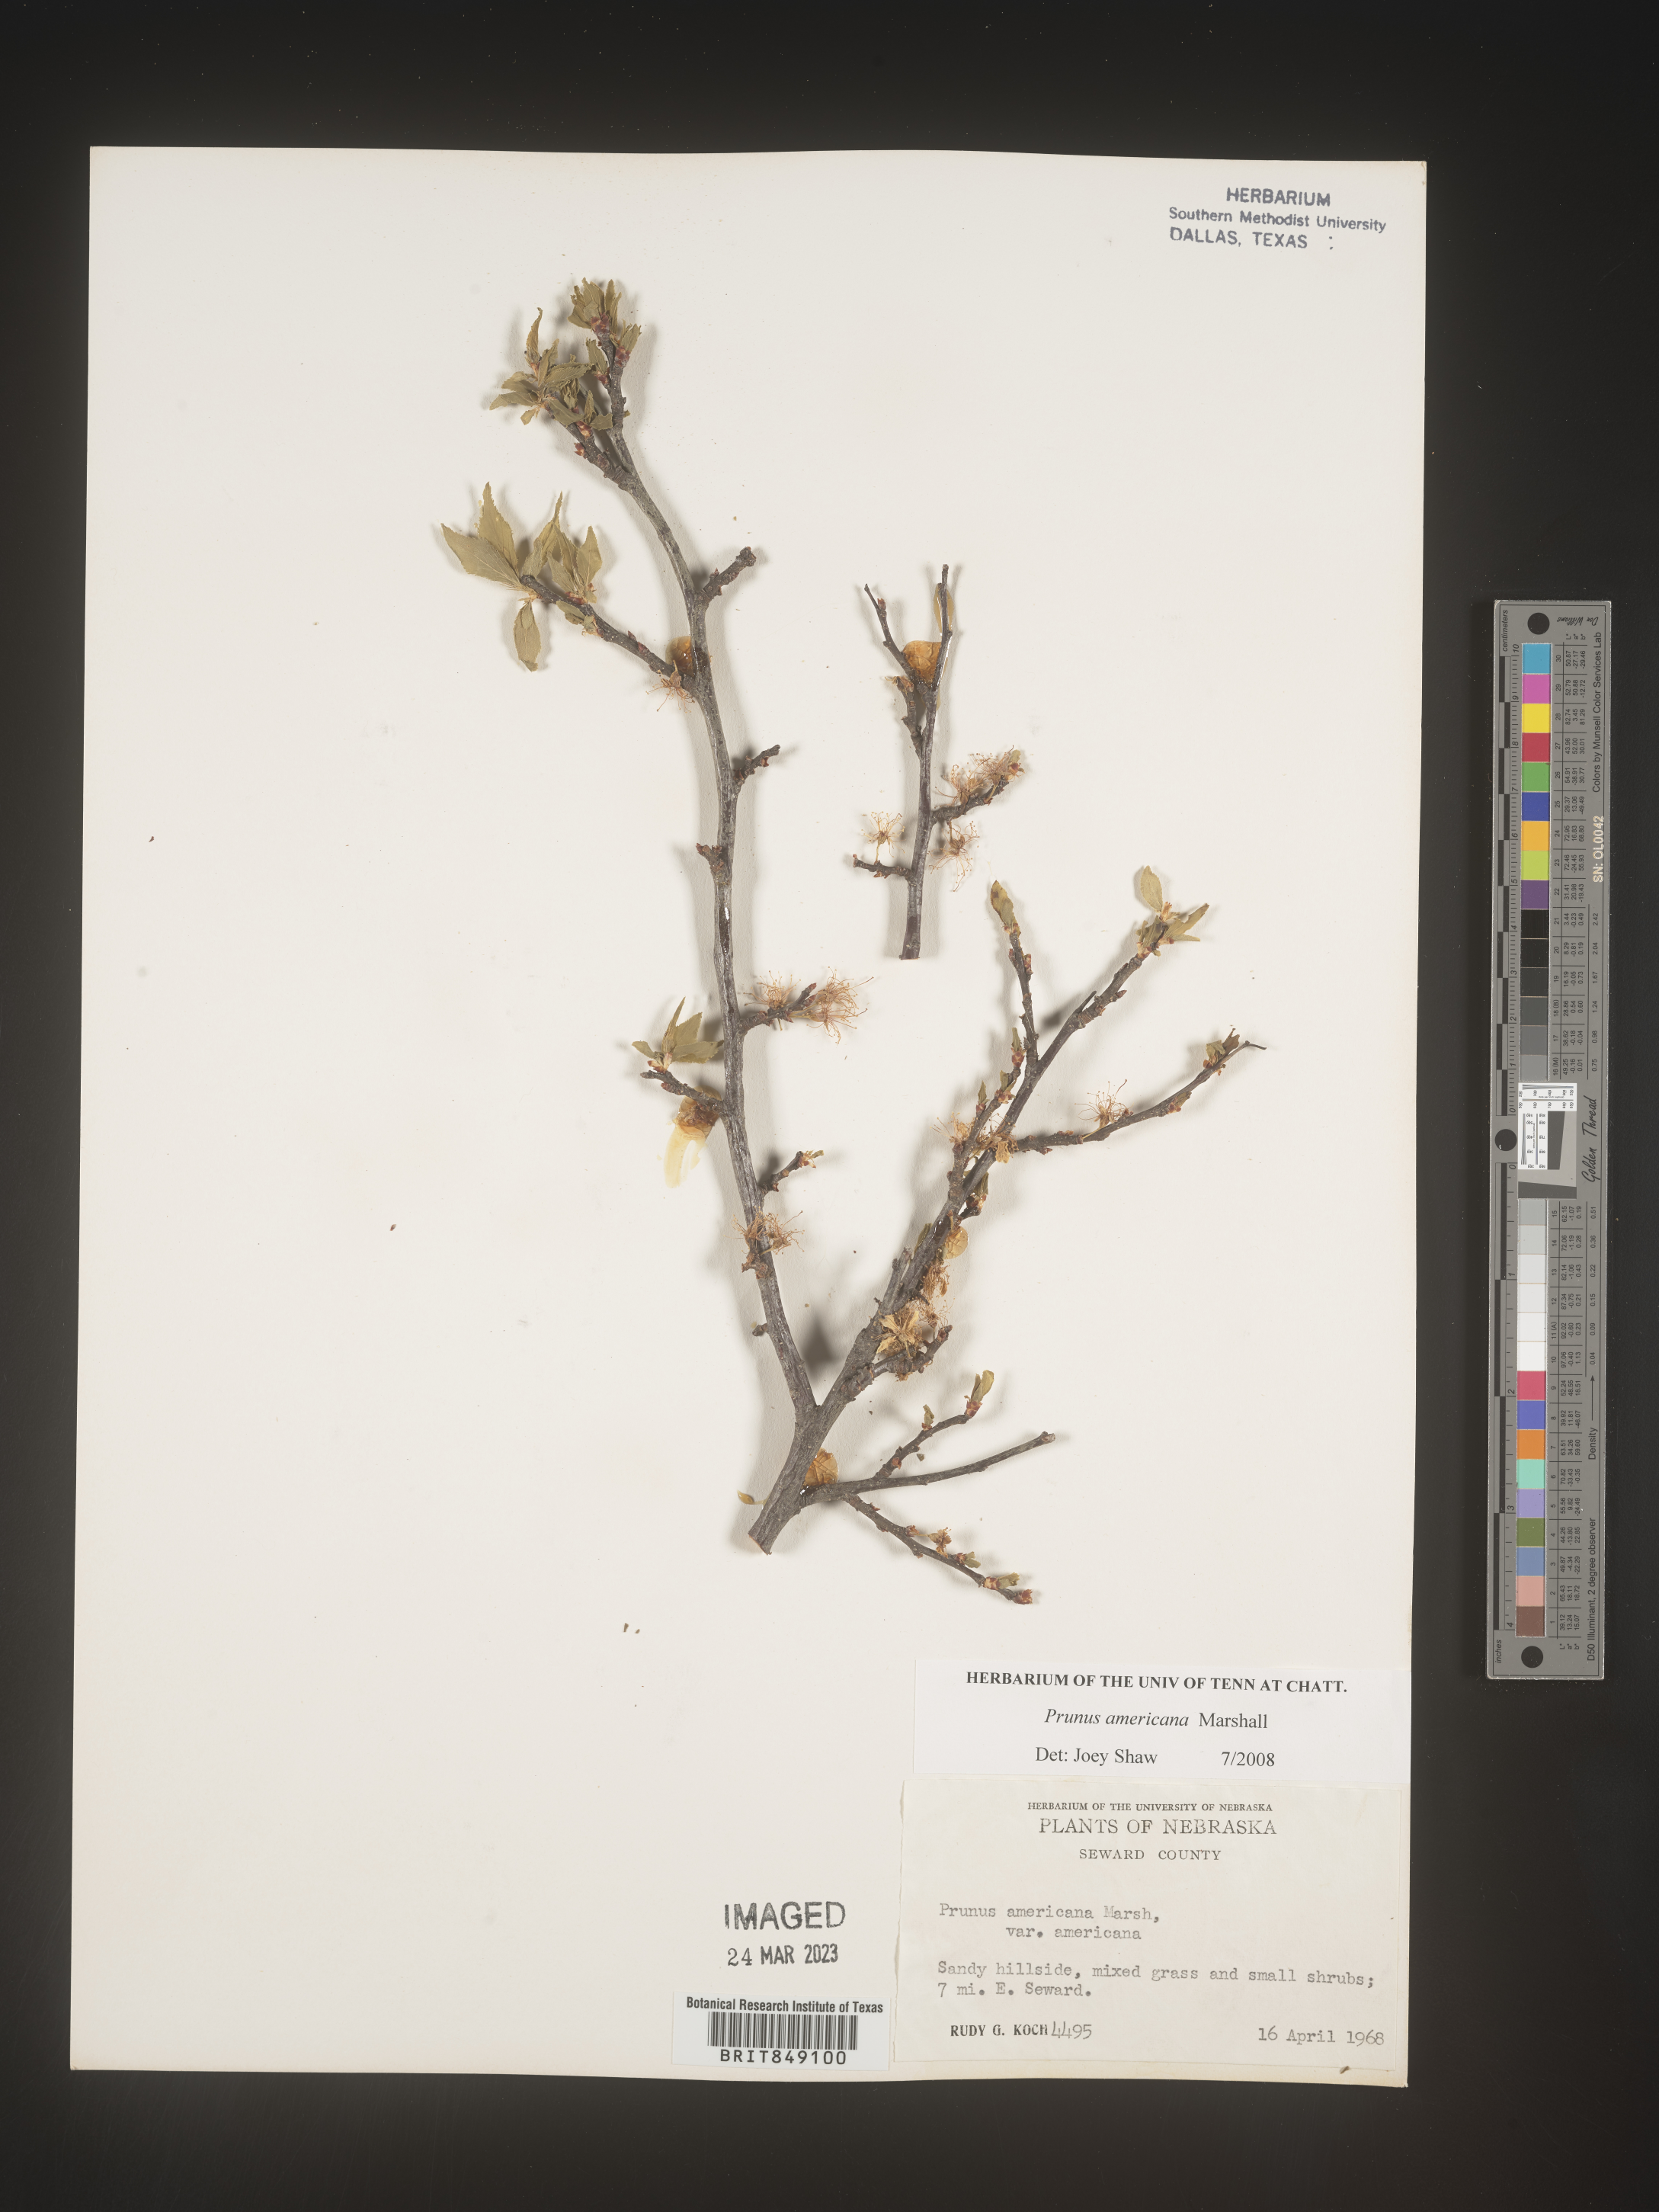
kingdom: Plantae
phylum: Tracheophyta
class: Magnoliopsida
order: Rosales
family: Rosaceae
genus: Prunus
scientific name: Prunus americana
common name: American plum
